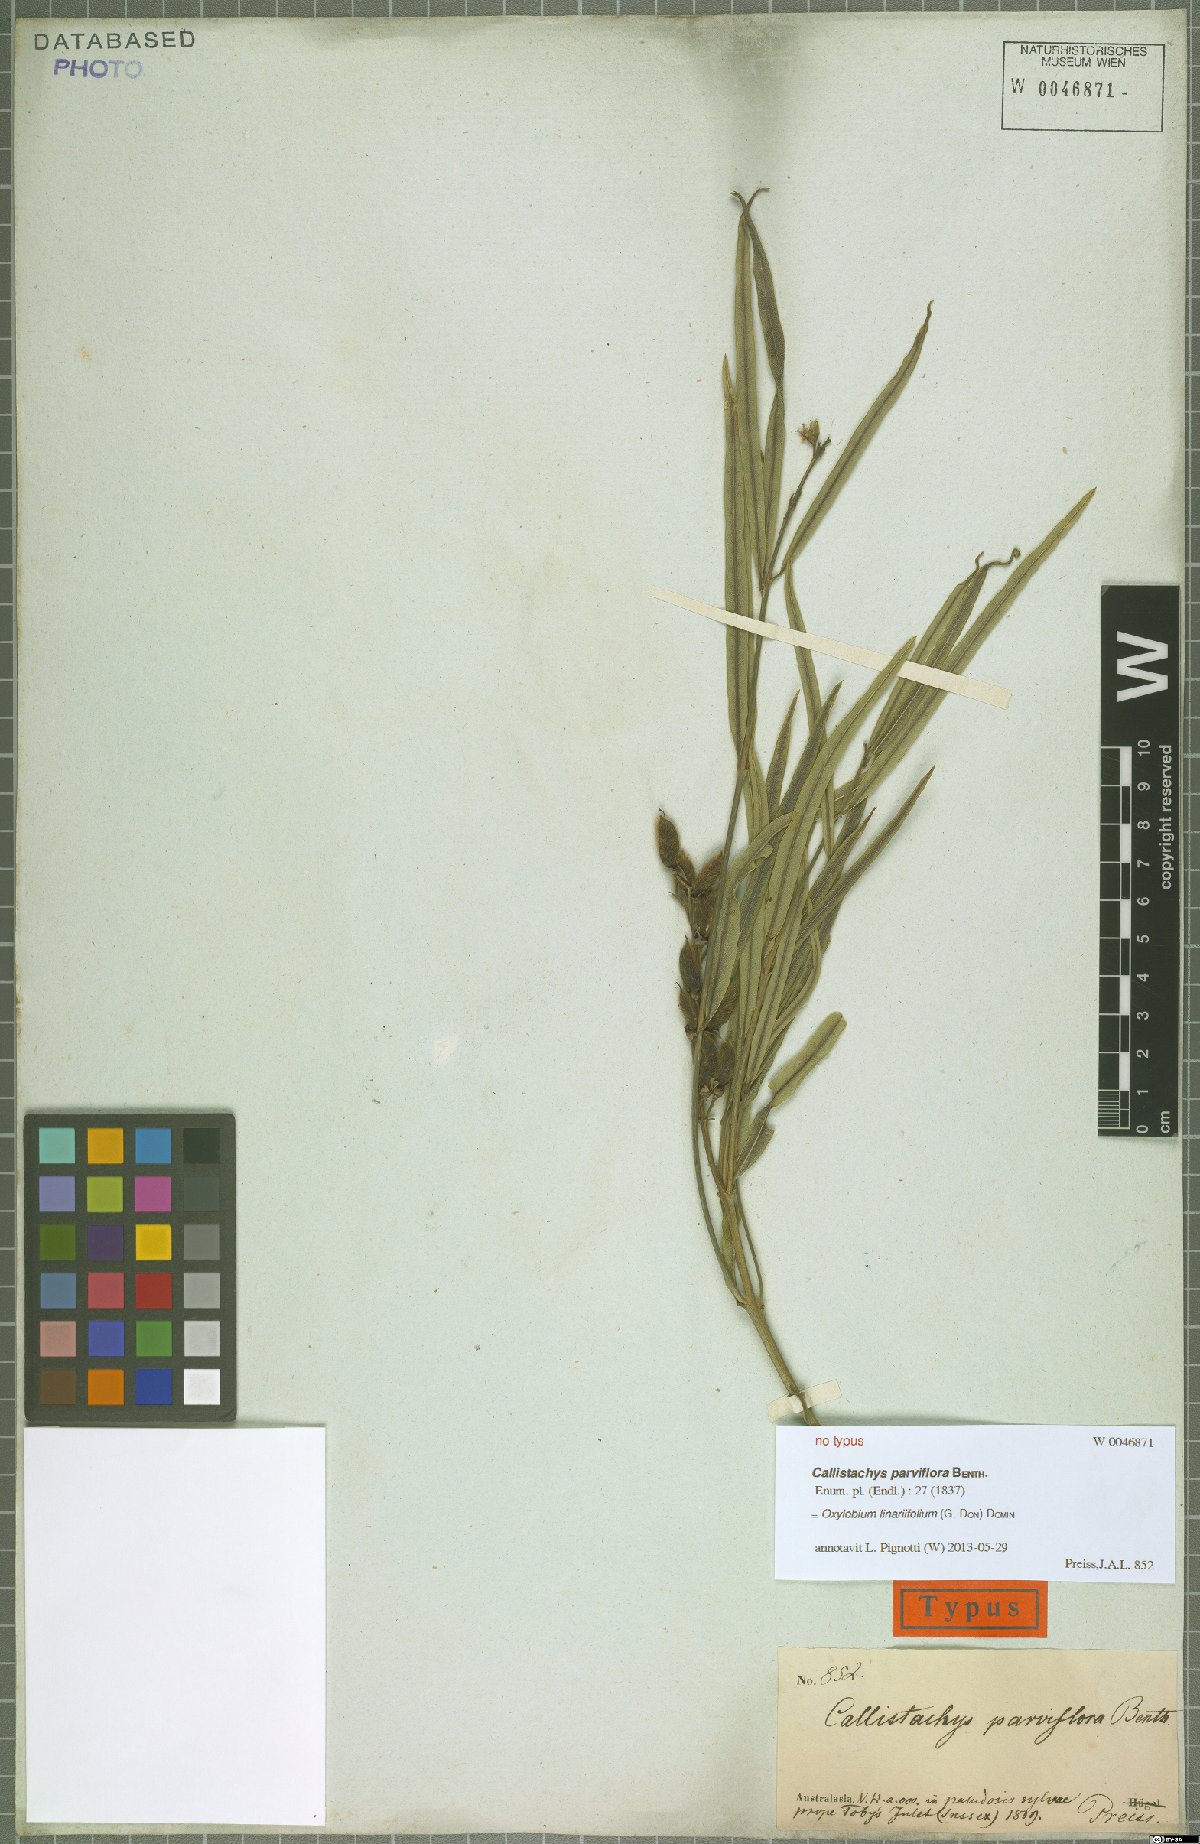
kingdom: Plantae
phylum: Tracheophyta
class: Magnoliopsida
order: Fabales
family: Fabaceae
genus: Callistachys
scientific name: Callistachys linariifolia
